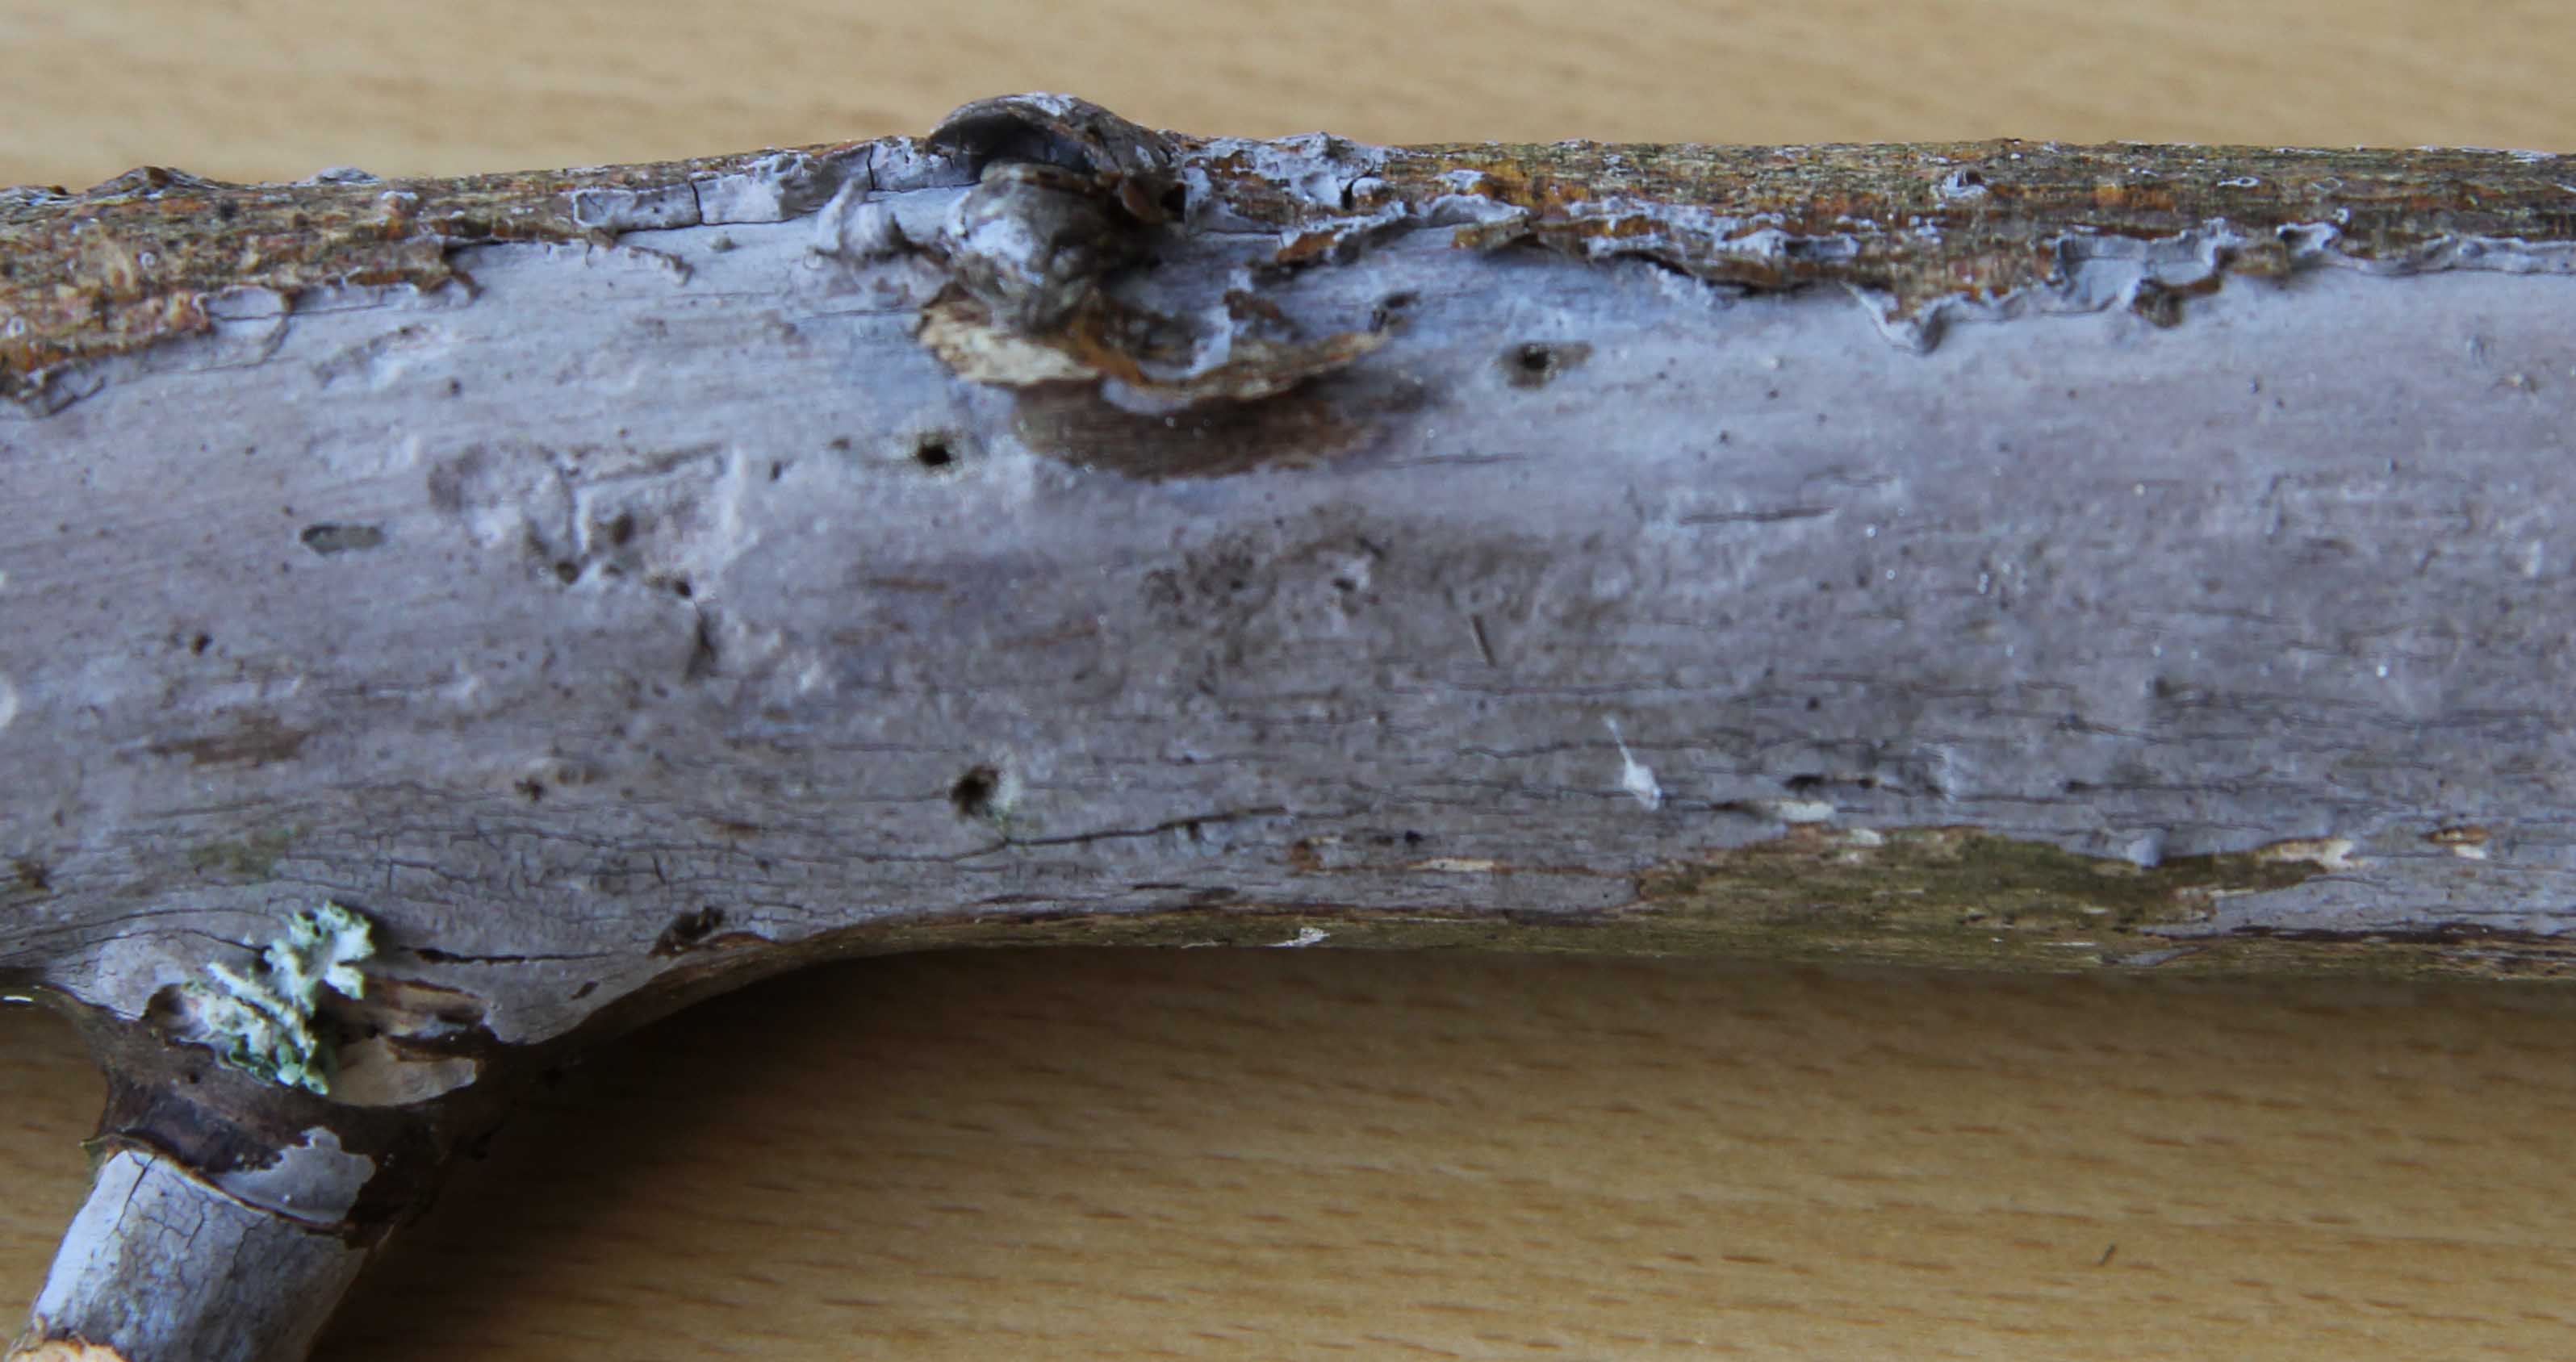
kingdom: Fungi
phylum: Basidiomycota
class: Agaricomycetes
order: Russulales
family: Peniophoraceae
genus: Peniophora
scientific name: Peniophora lycii
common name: grynet voksskind
